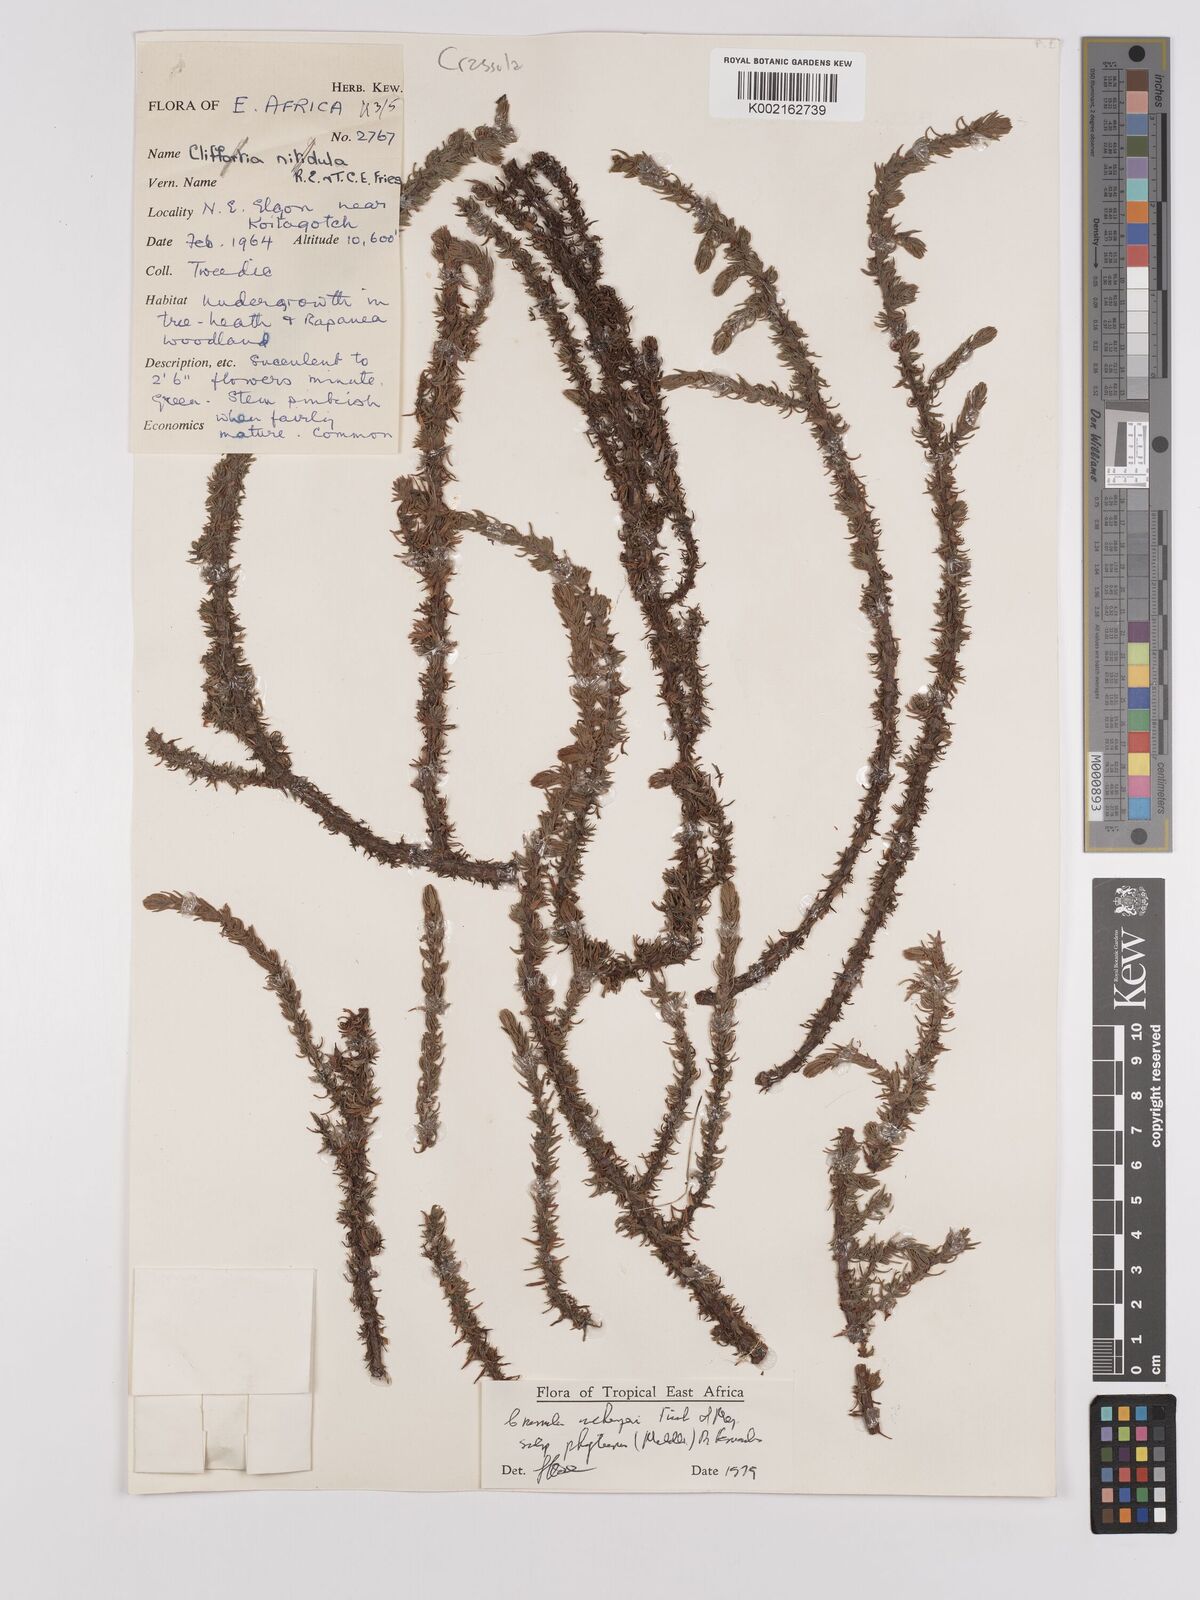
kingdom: Plantae
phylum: Tracheophyta
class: Magnoliopsida
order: Saxifragales
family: Crassulaceae
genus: Crassula
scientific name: Crassula schimperi
